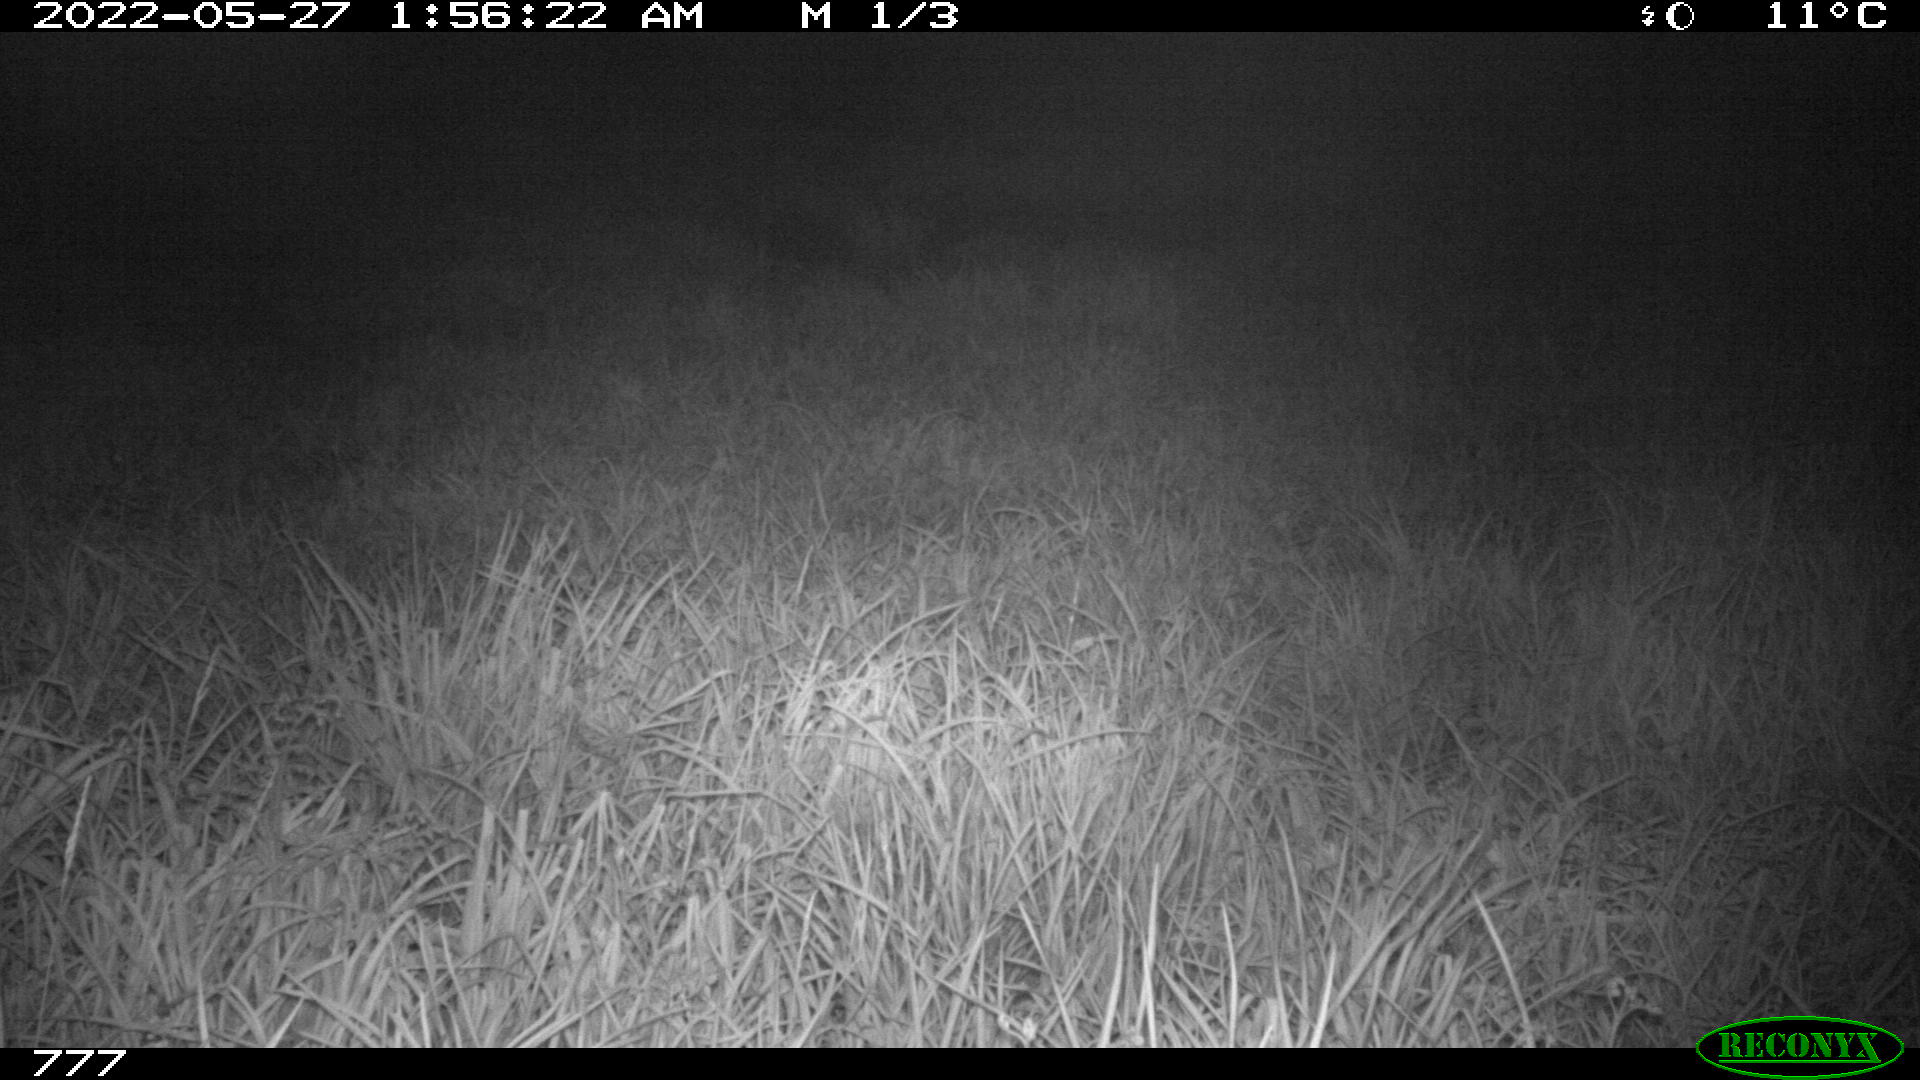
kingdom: Animalia
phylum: Chordata
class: Mammalia
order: Artiodactyla
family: Cervidae
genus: Capreolus
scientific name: Capreolus capreolus
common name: Western roe deer
